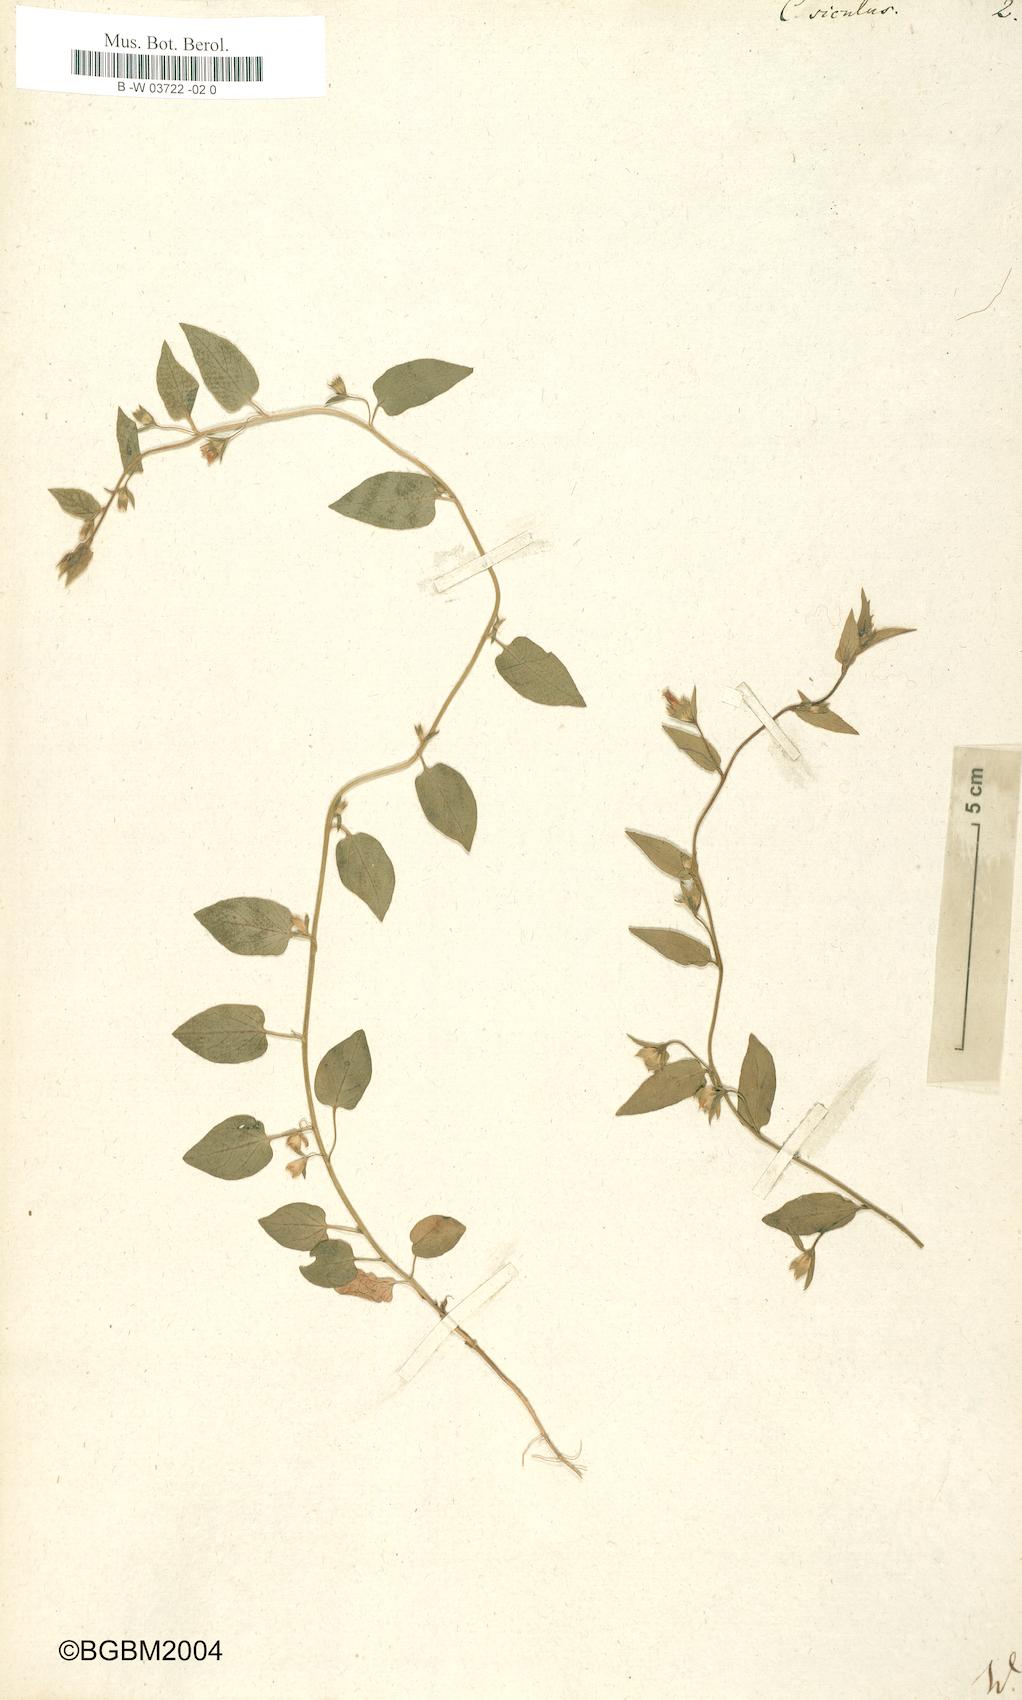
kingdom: Plantae
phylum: Tracheophyta
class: Magnoliopsida
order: Solanales
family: Convolvulaceae
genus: Convolvulus
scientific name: Convolvulus siculus
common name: Small blue-convolvulus
